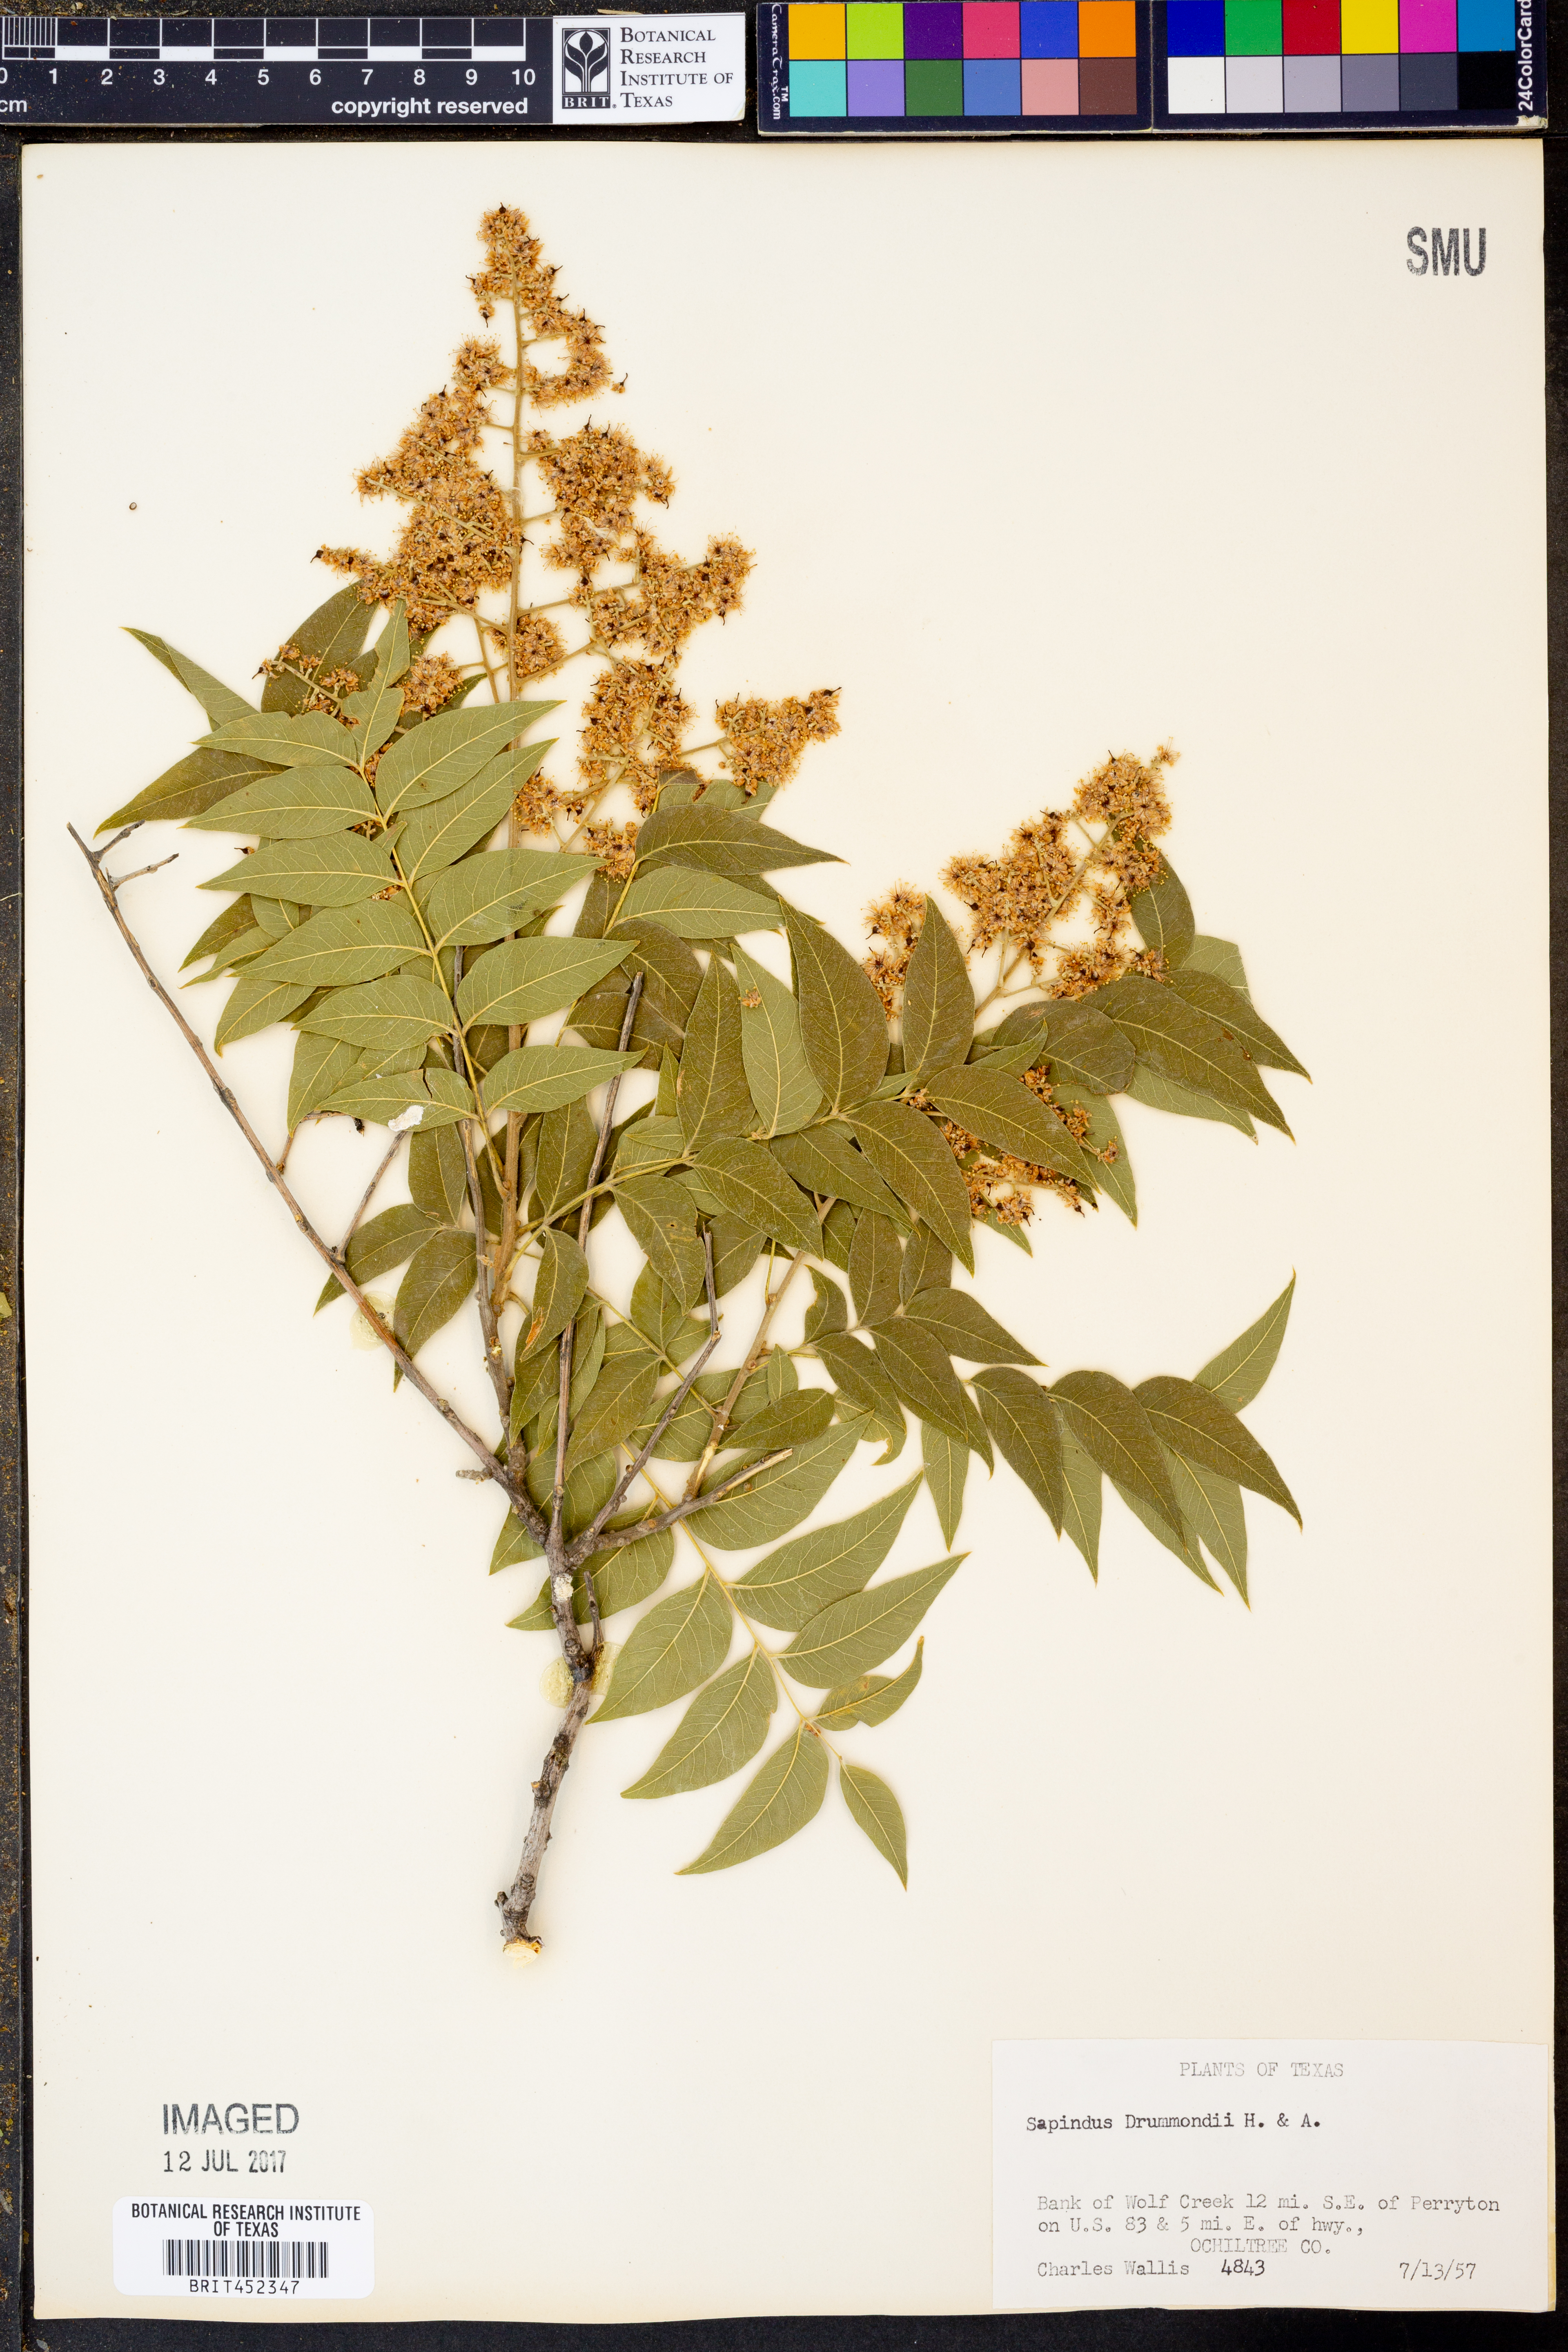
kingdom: Plantae
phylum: Tracheophyta
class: Magnoliopsida
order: Sapindales
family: Sapindaceae
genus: Sapindus
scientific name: Sapindus drummondii
